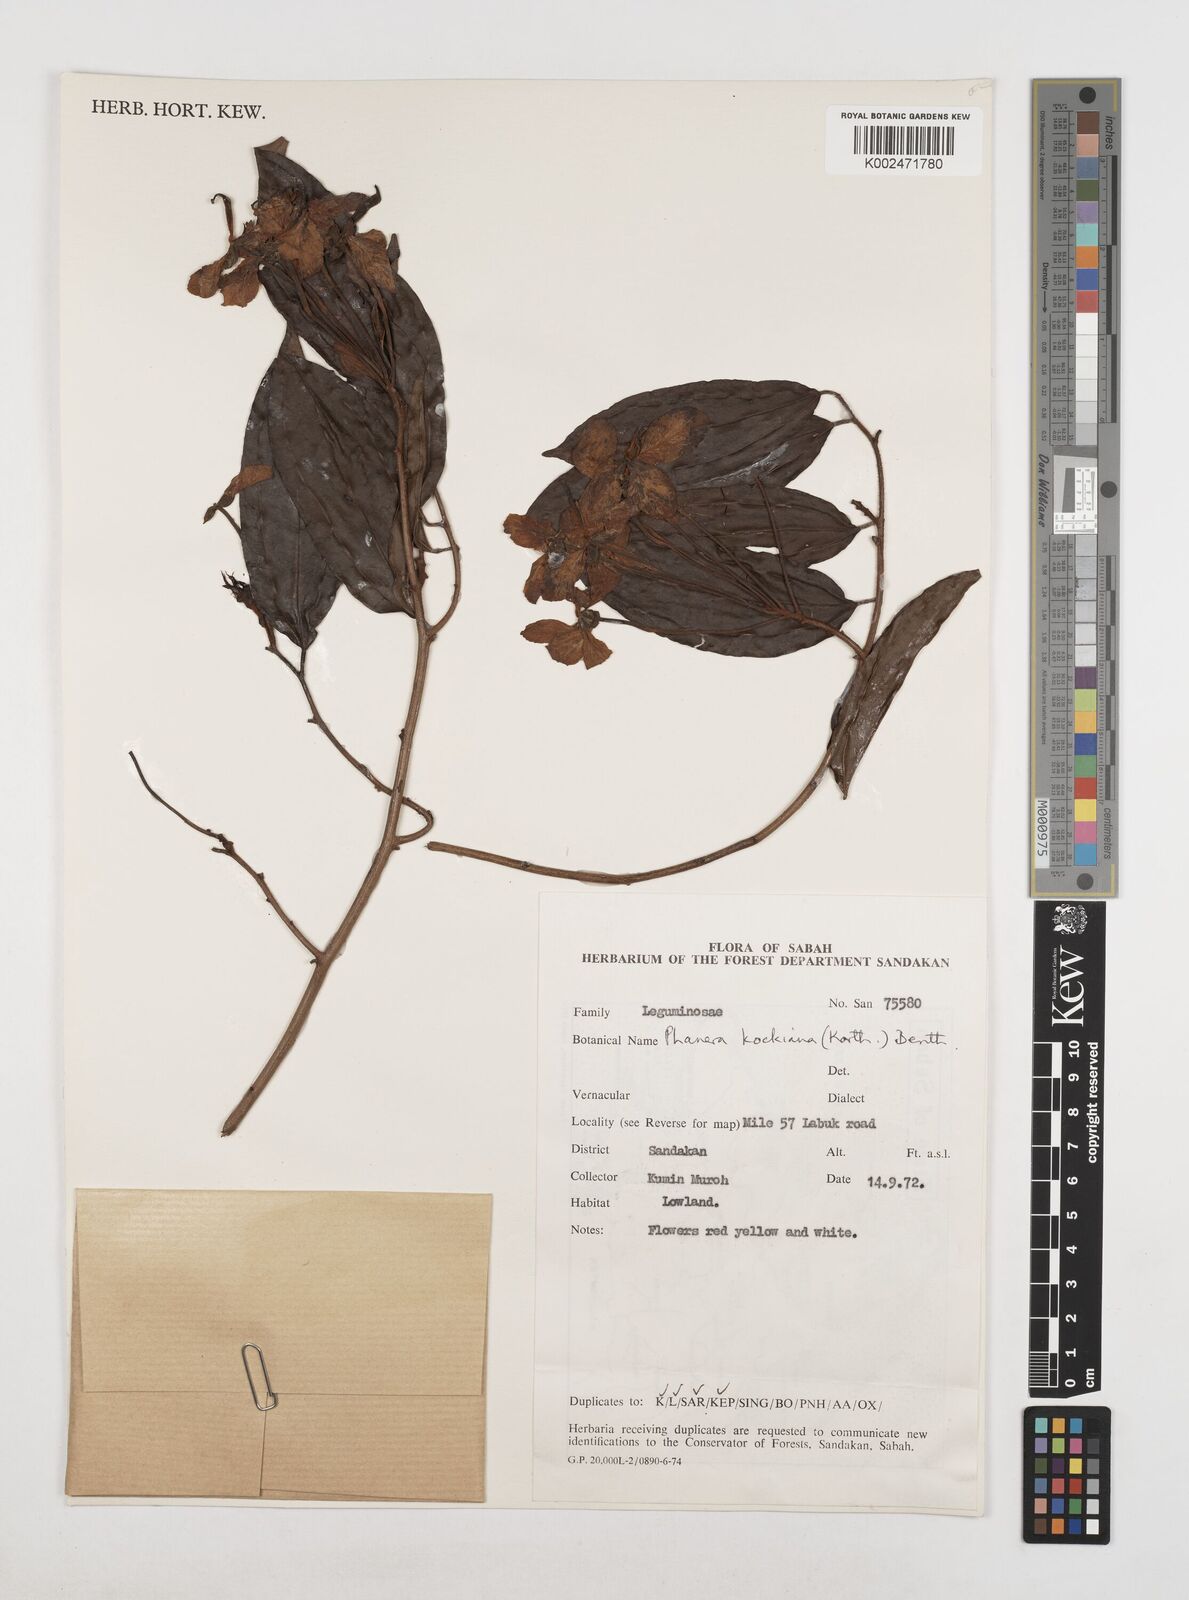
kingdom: Plantae
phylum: Tracheophyta
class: Magnoliopsida
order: Fabales
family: Fabaceae
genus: Phanera
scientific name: Phanera kockiana
